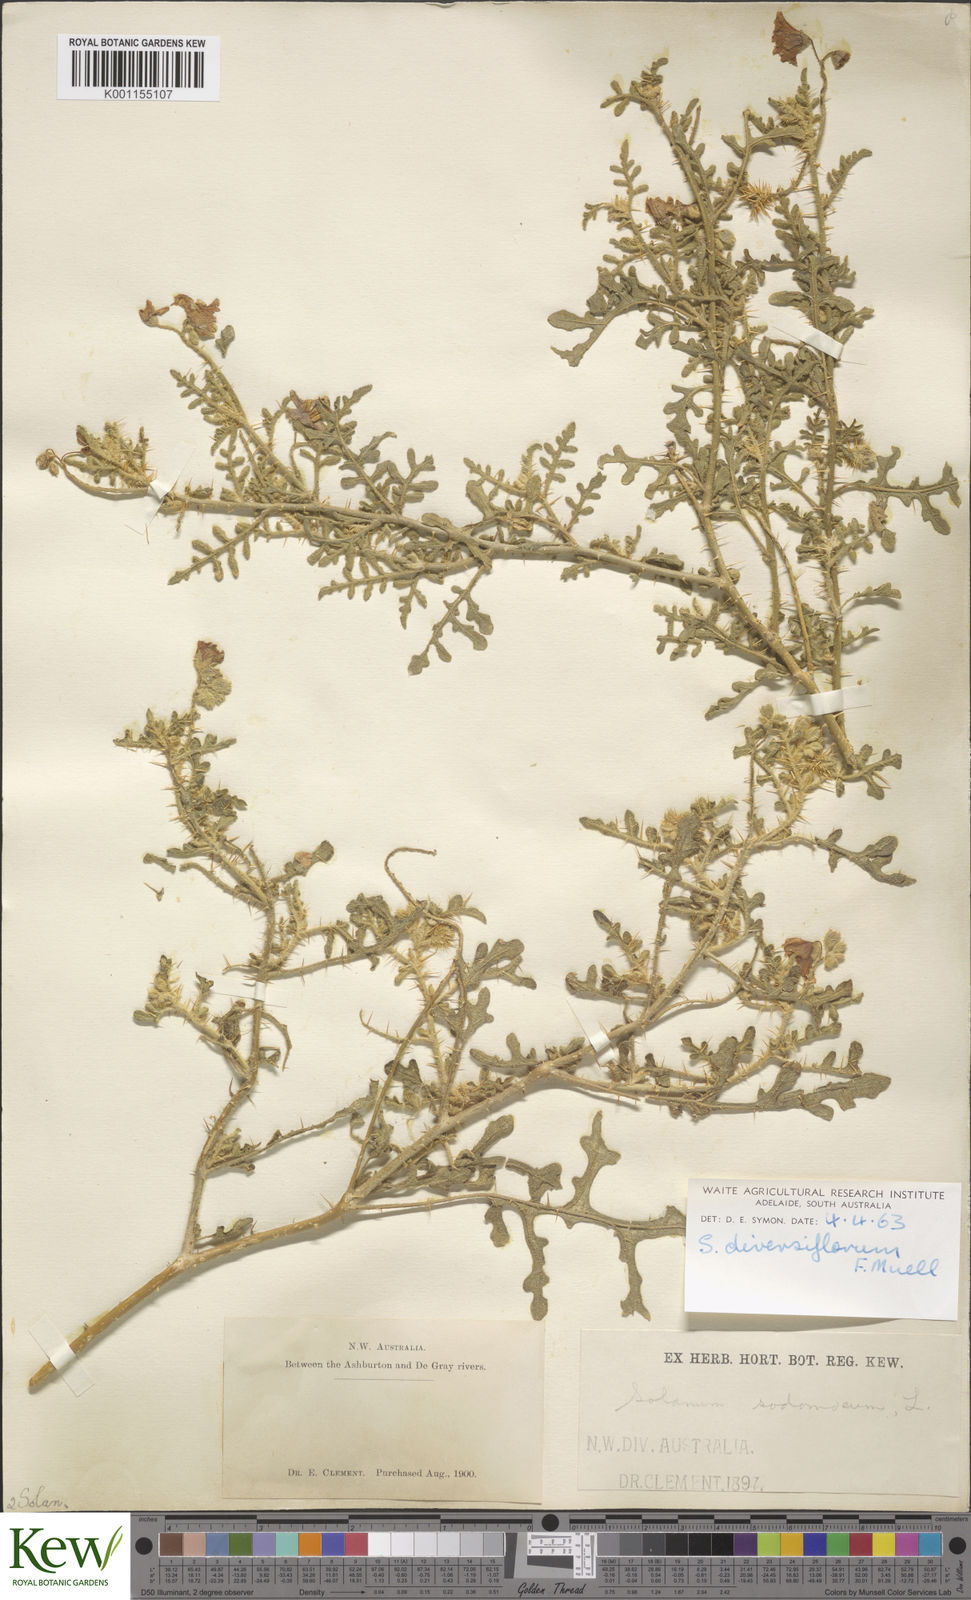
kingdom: Plantae
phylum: Tracheophyta
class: Magnoliopsida
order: Solanales
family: Solanaceae
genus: Solanum
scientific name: Solanum diversiflorum
